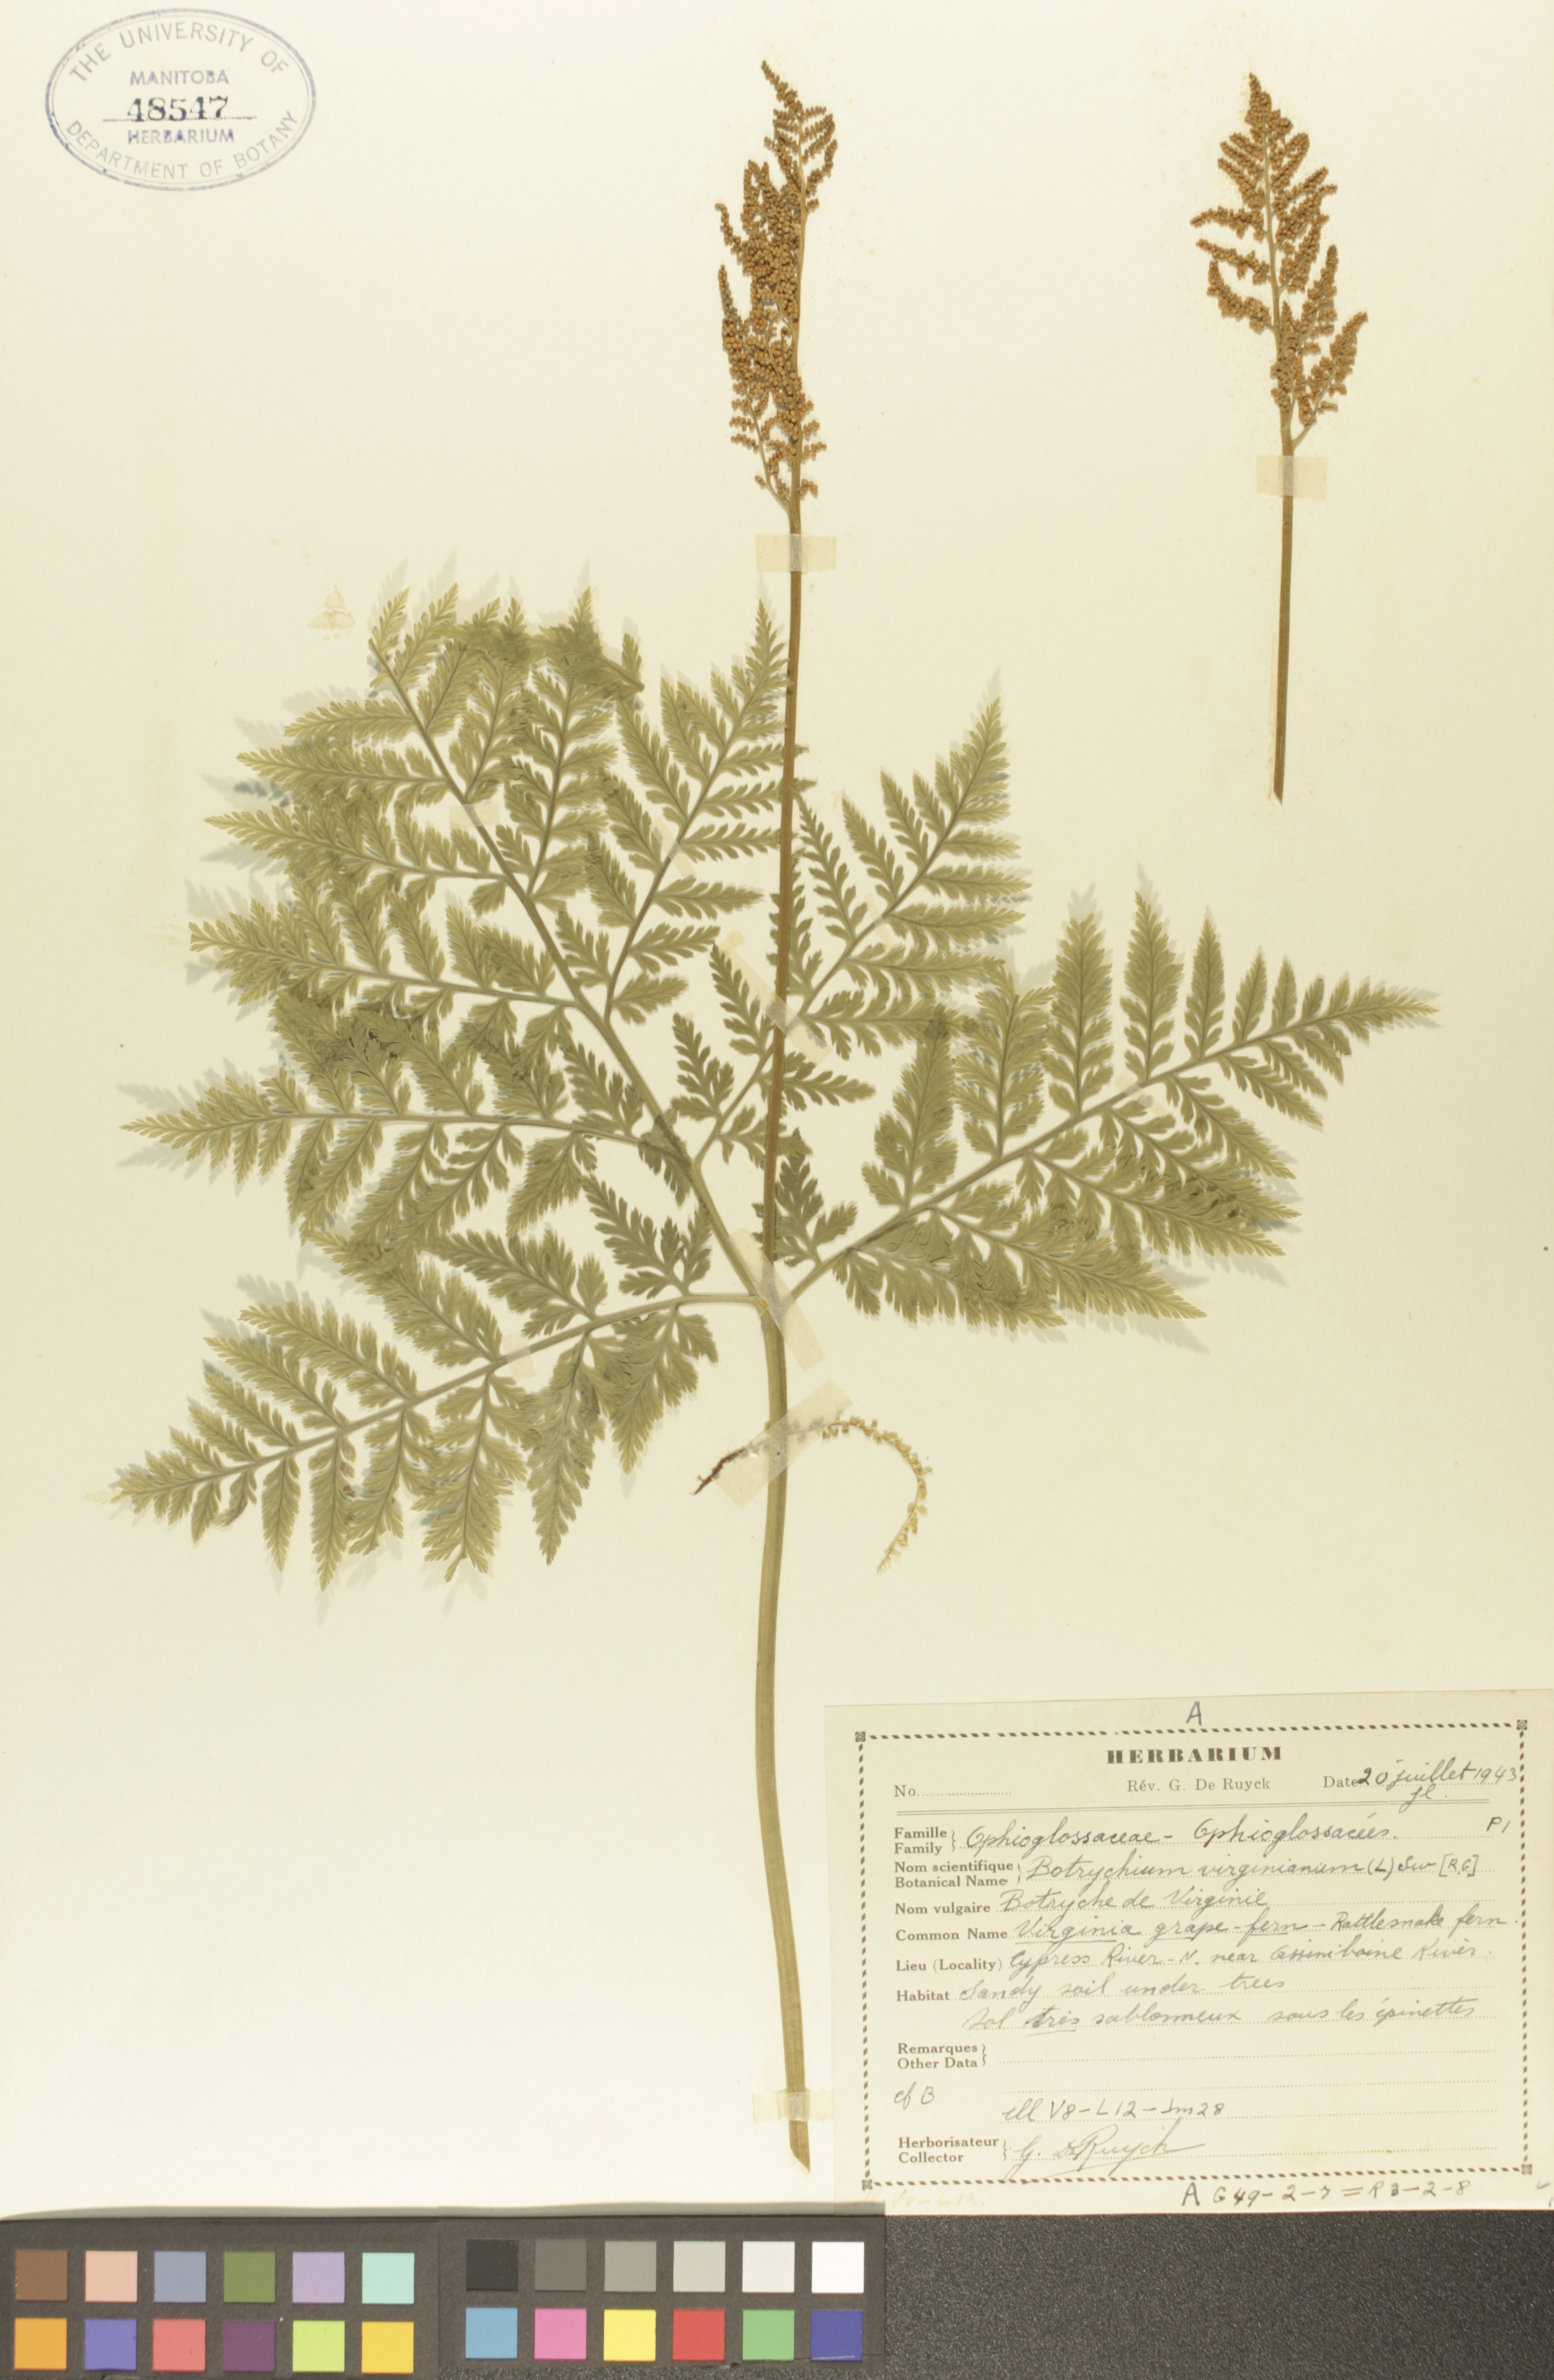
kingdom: Plantae
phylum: Tracheophyta
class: Polypodiopsida
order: Ophioglossales
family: Ophioglossaceae
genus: Botrypus
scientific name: Botrypus virginianus
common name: Common grapefern
